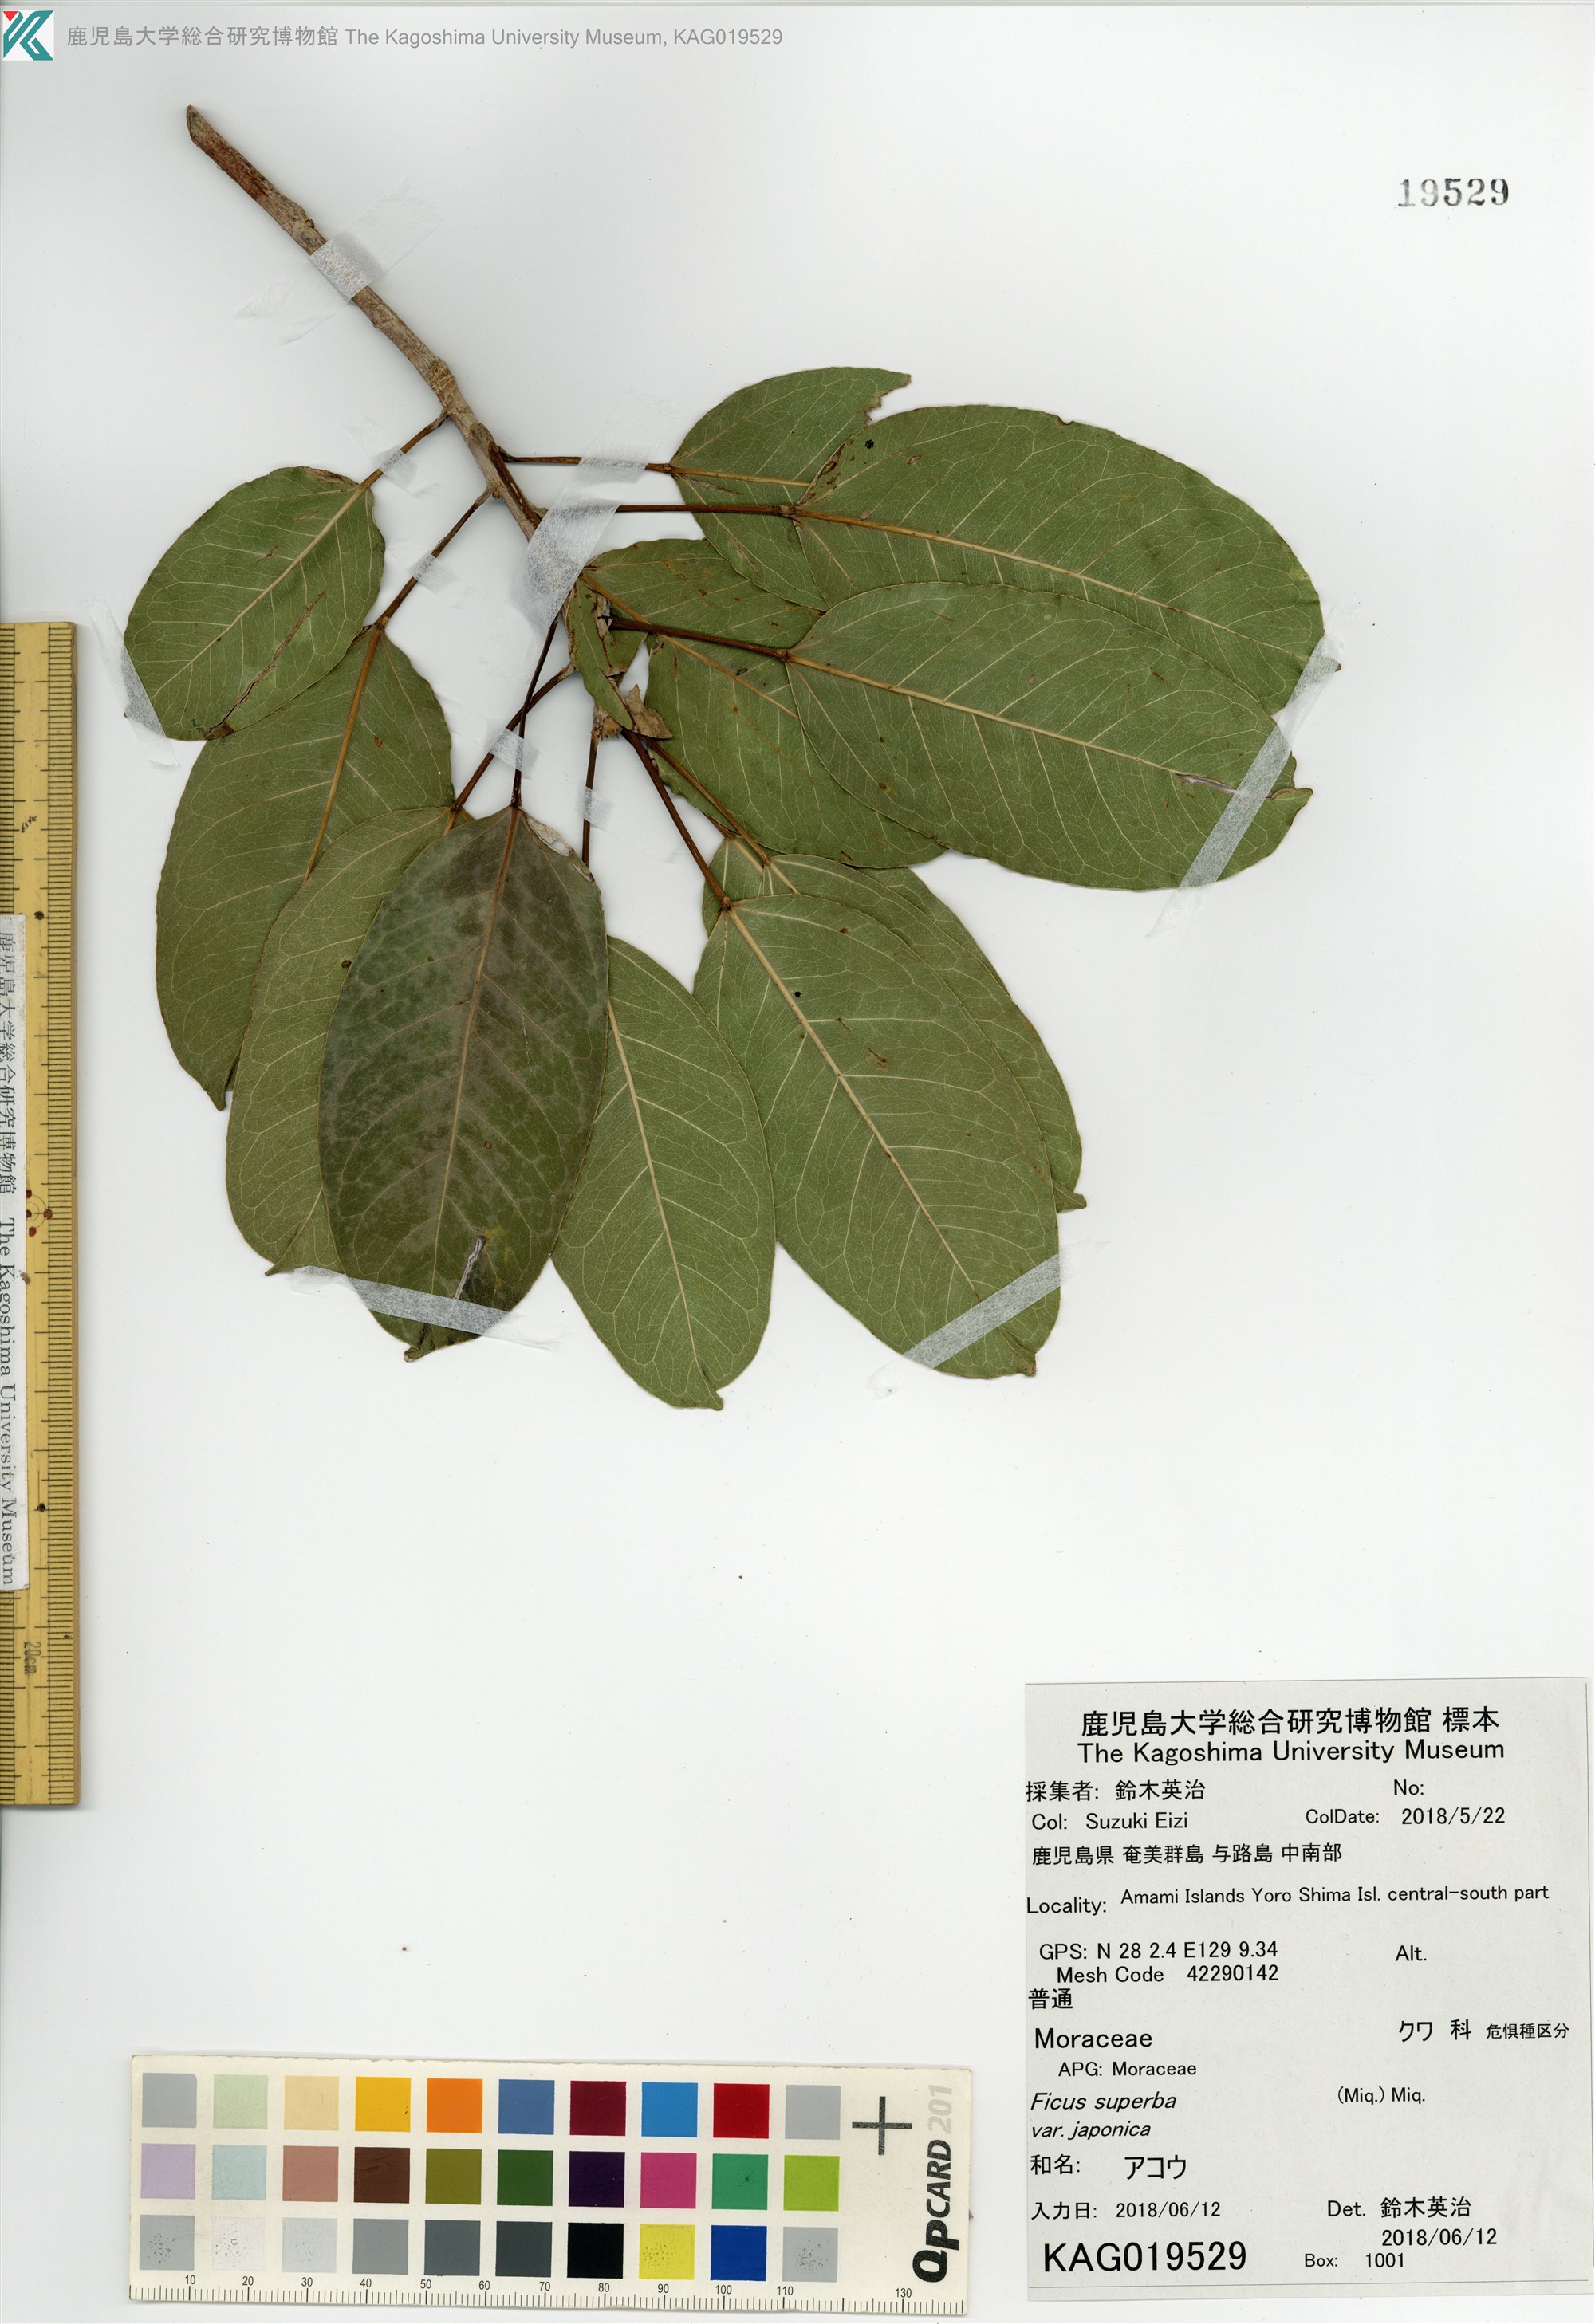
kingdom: Plantae
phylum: Tracheophyta
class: Magnoliopsida
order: Rosales
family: Moraceae
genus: Ficus
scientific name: Ficus subpisocarpa
